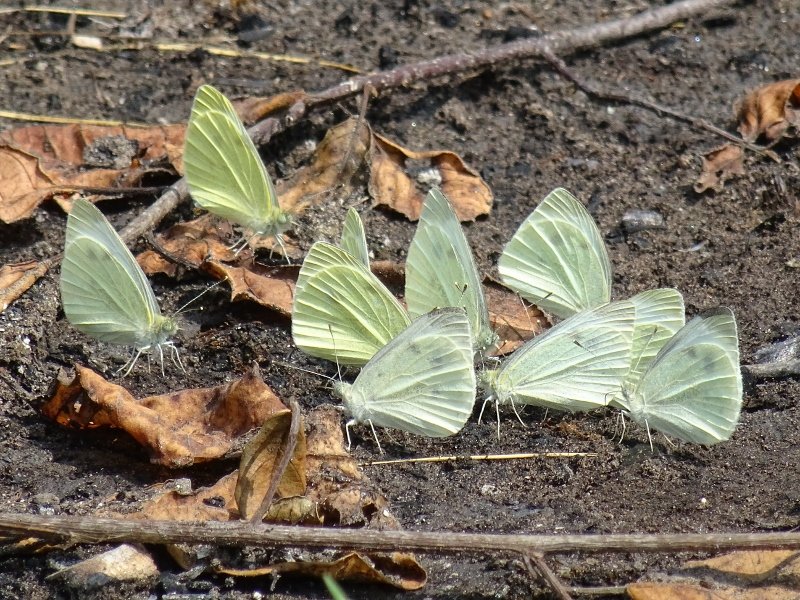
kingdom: Animalia
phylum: Arthropoda
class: Insecta
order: Lepidoptera
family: Pieridae
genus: Pieris
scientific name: Pieris rapae
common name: Cabbage White
